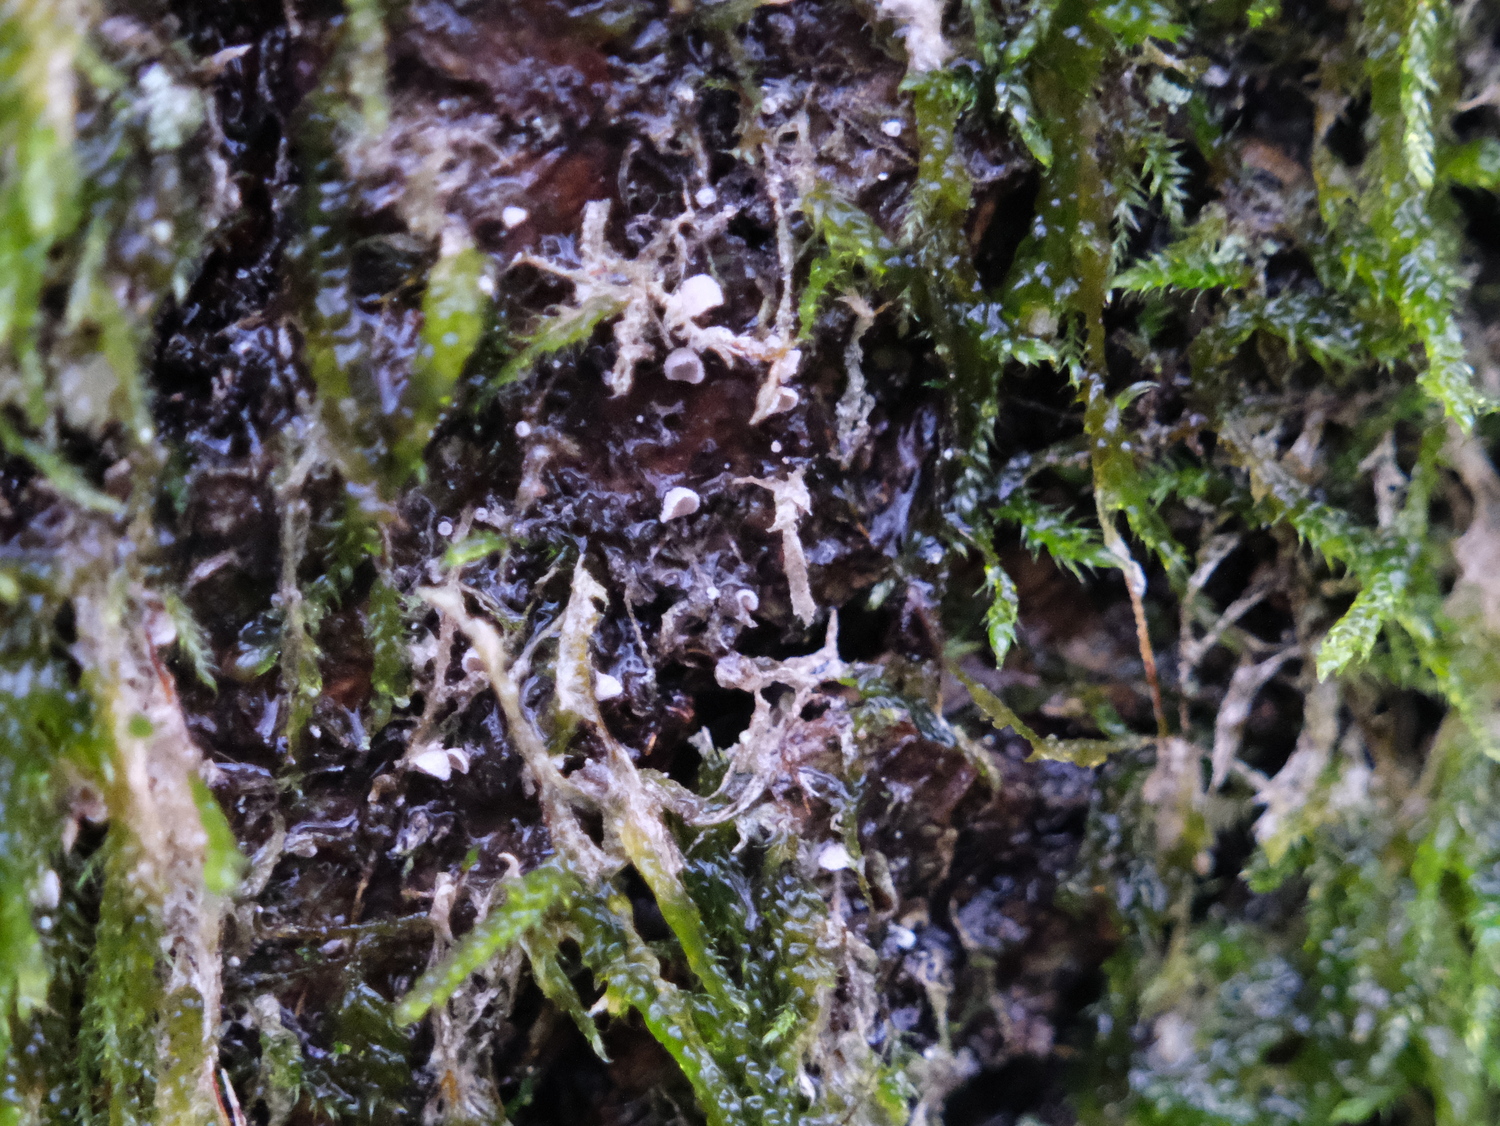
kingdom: Fungi
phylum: Basidiomycota
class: Agaricomycetes
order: Agaricales
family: Chromocyphellaceae
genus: Chromocyphella
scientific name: Chromocyphella muscicola
